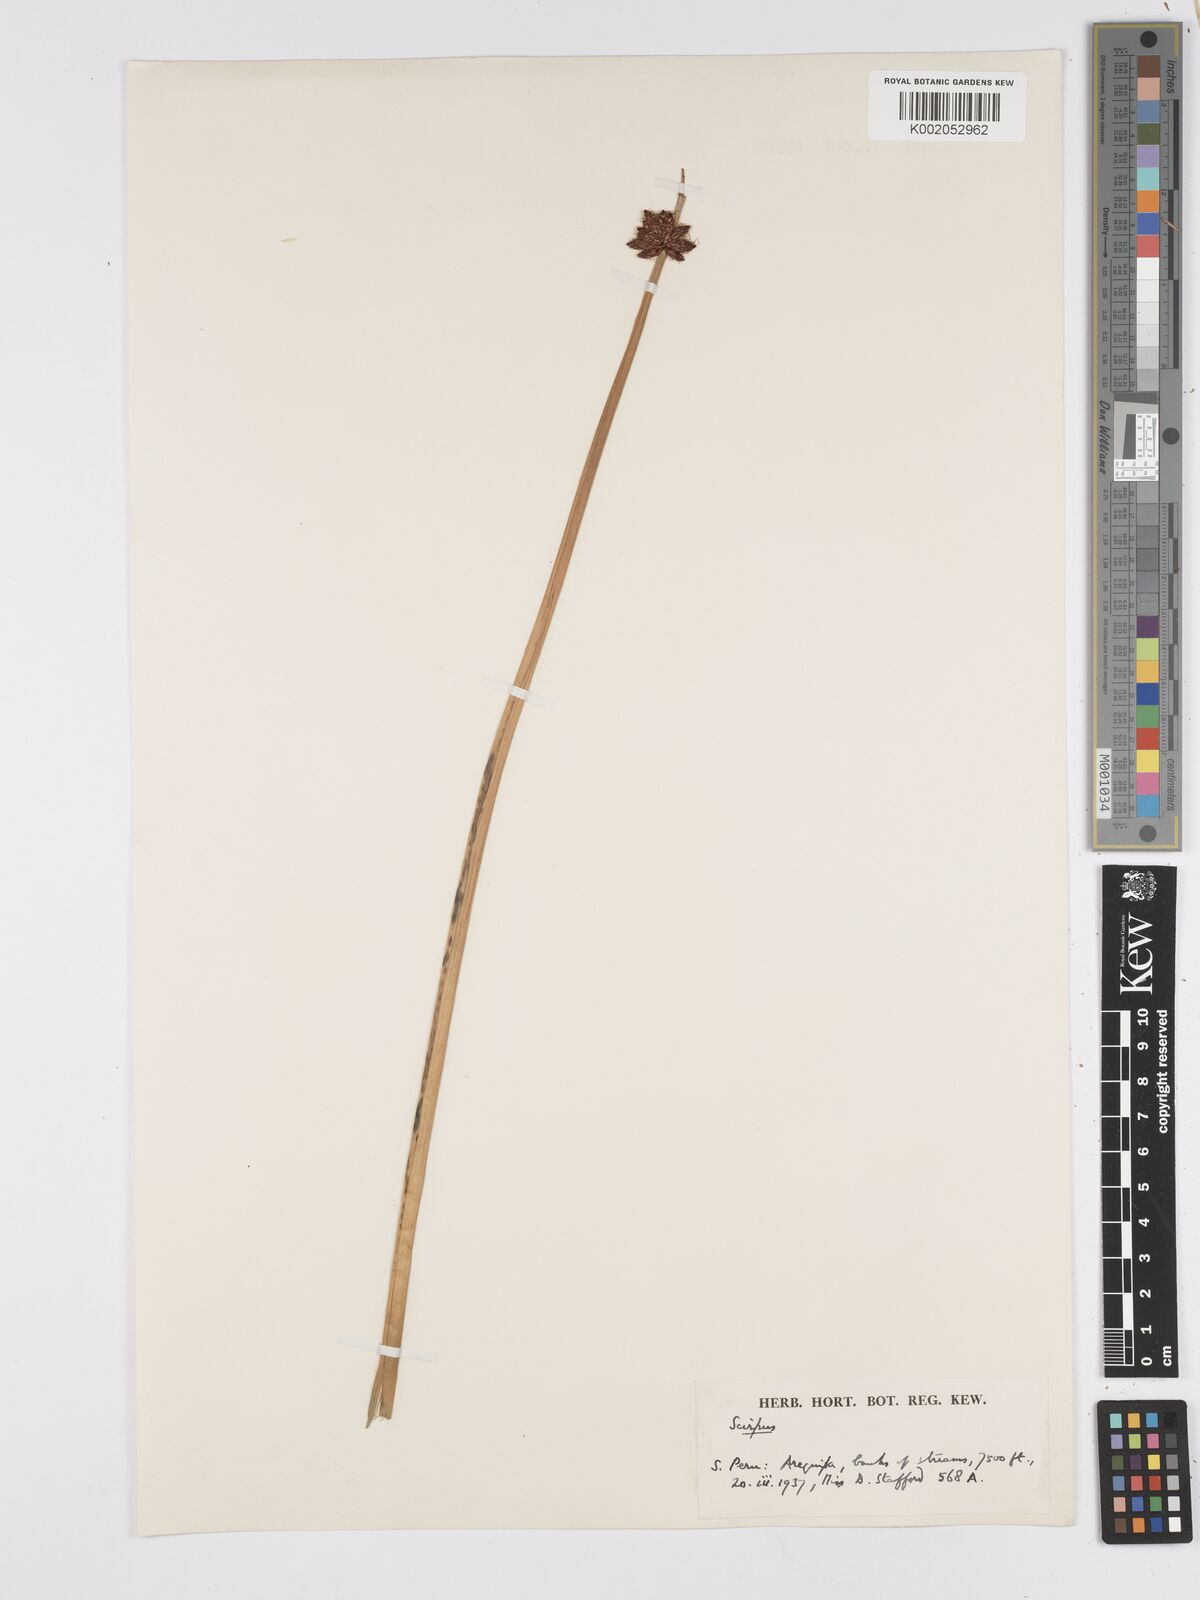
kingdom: Plantae
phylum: Tracheophyta
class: Liliopsida
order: Poales
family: Cyperaceae
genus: Scirpus
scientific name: Scirpus
